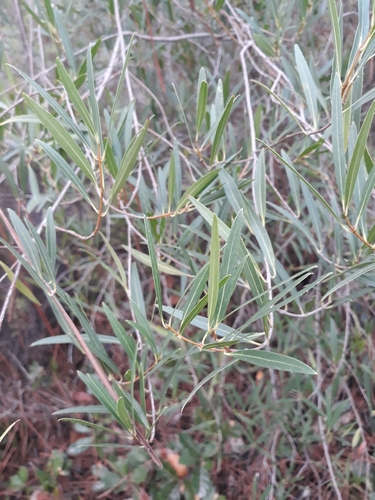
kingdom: Plantae
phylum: Tracheophyta
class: Magnoliopsida
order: Lamiales
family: Oleaceae
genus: Phillyrea
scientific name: Phillyrea angustifolia
